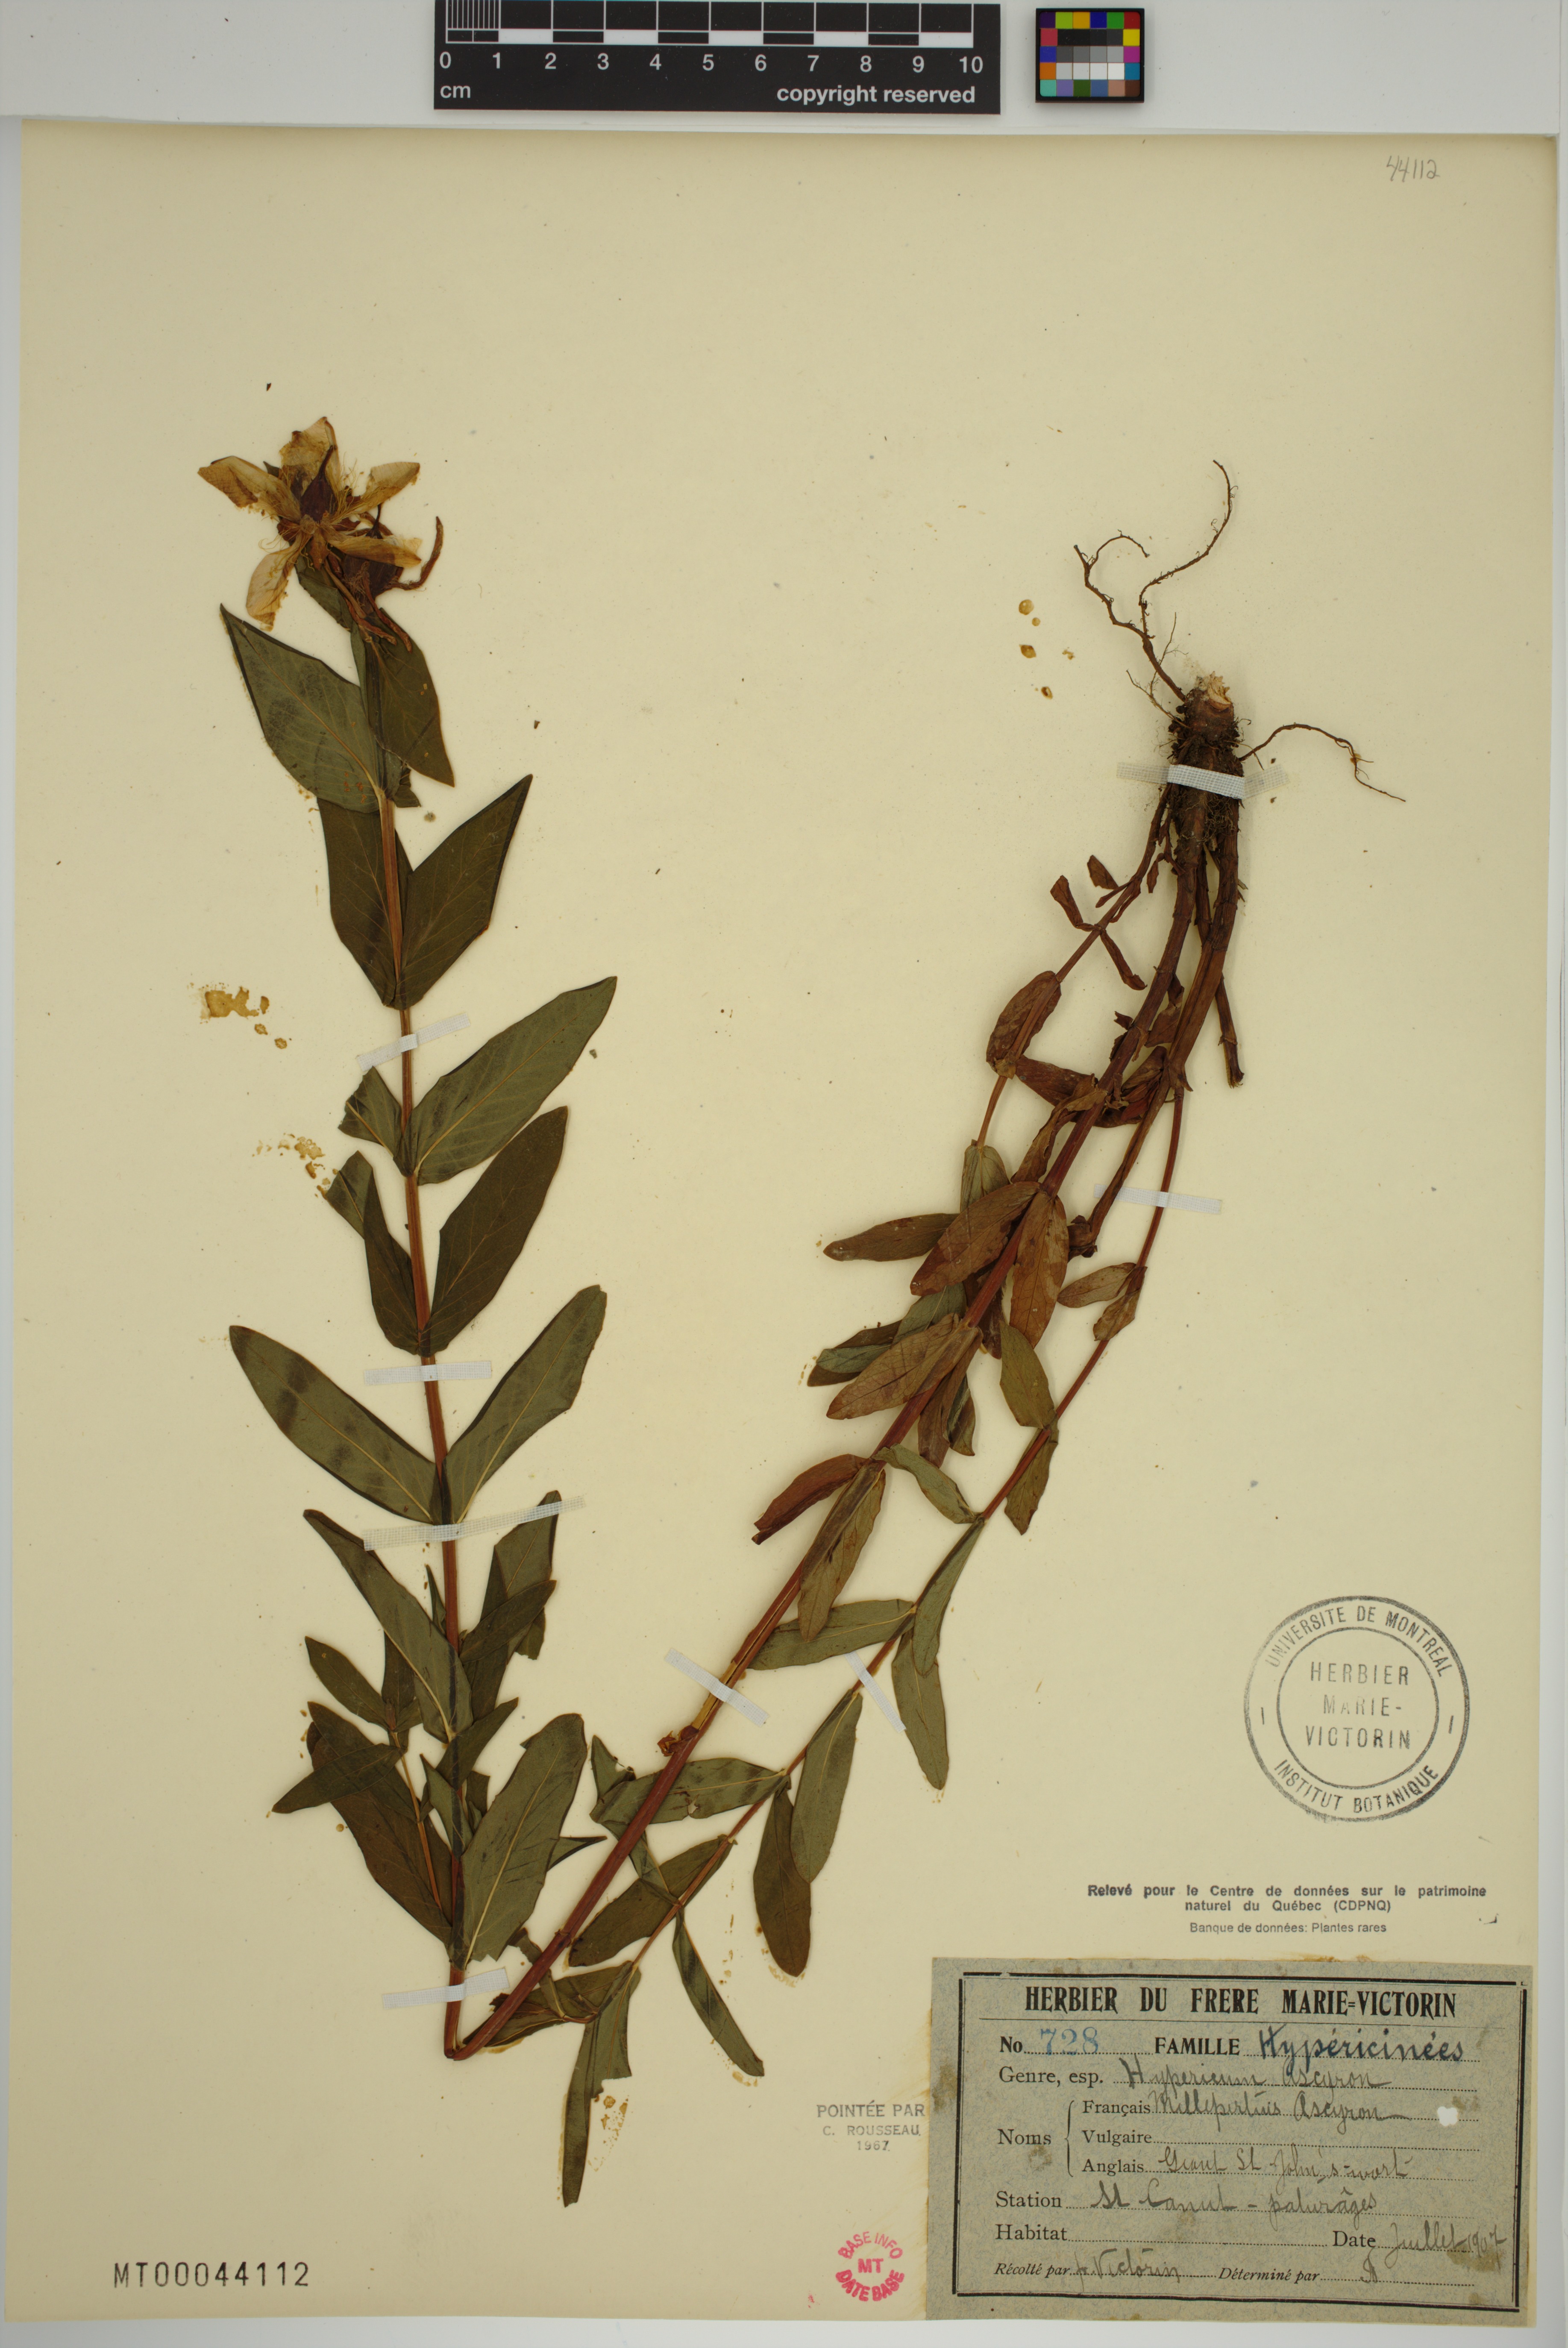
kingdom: Plantae
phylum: Tracheophyta
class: Magnoliopsida
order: Malpighiales
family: Hypericaceae
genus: Hypericum
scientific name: Hypericum ascyron
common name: Giant st. john's-wort
